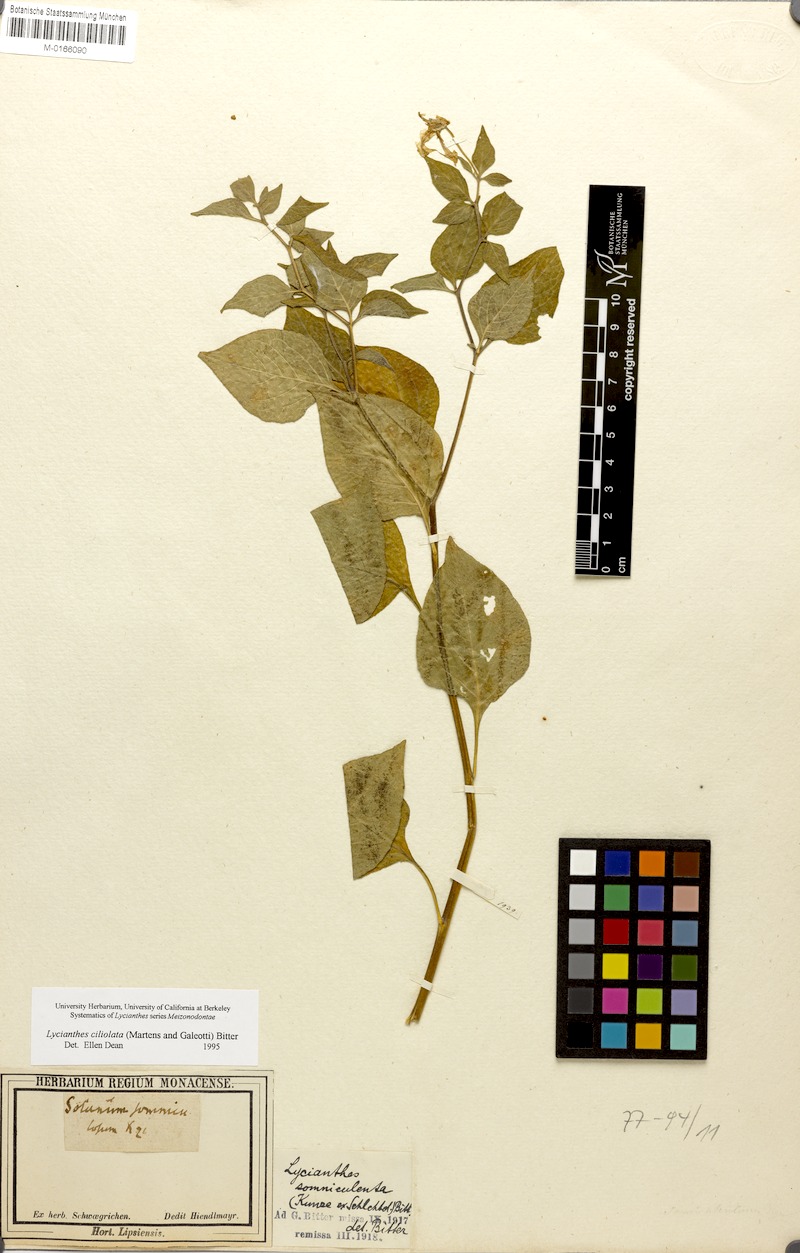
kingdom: Plantae
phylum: Tracheophyta
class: Magnoliopsida
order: Solanales
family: Solanaceae
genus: Lycianthes
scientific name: Lycianthes ciliolata
